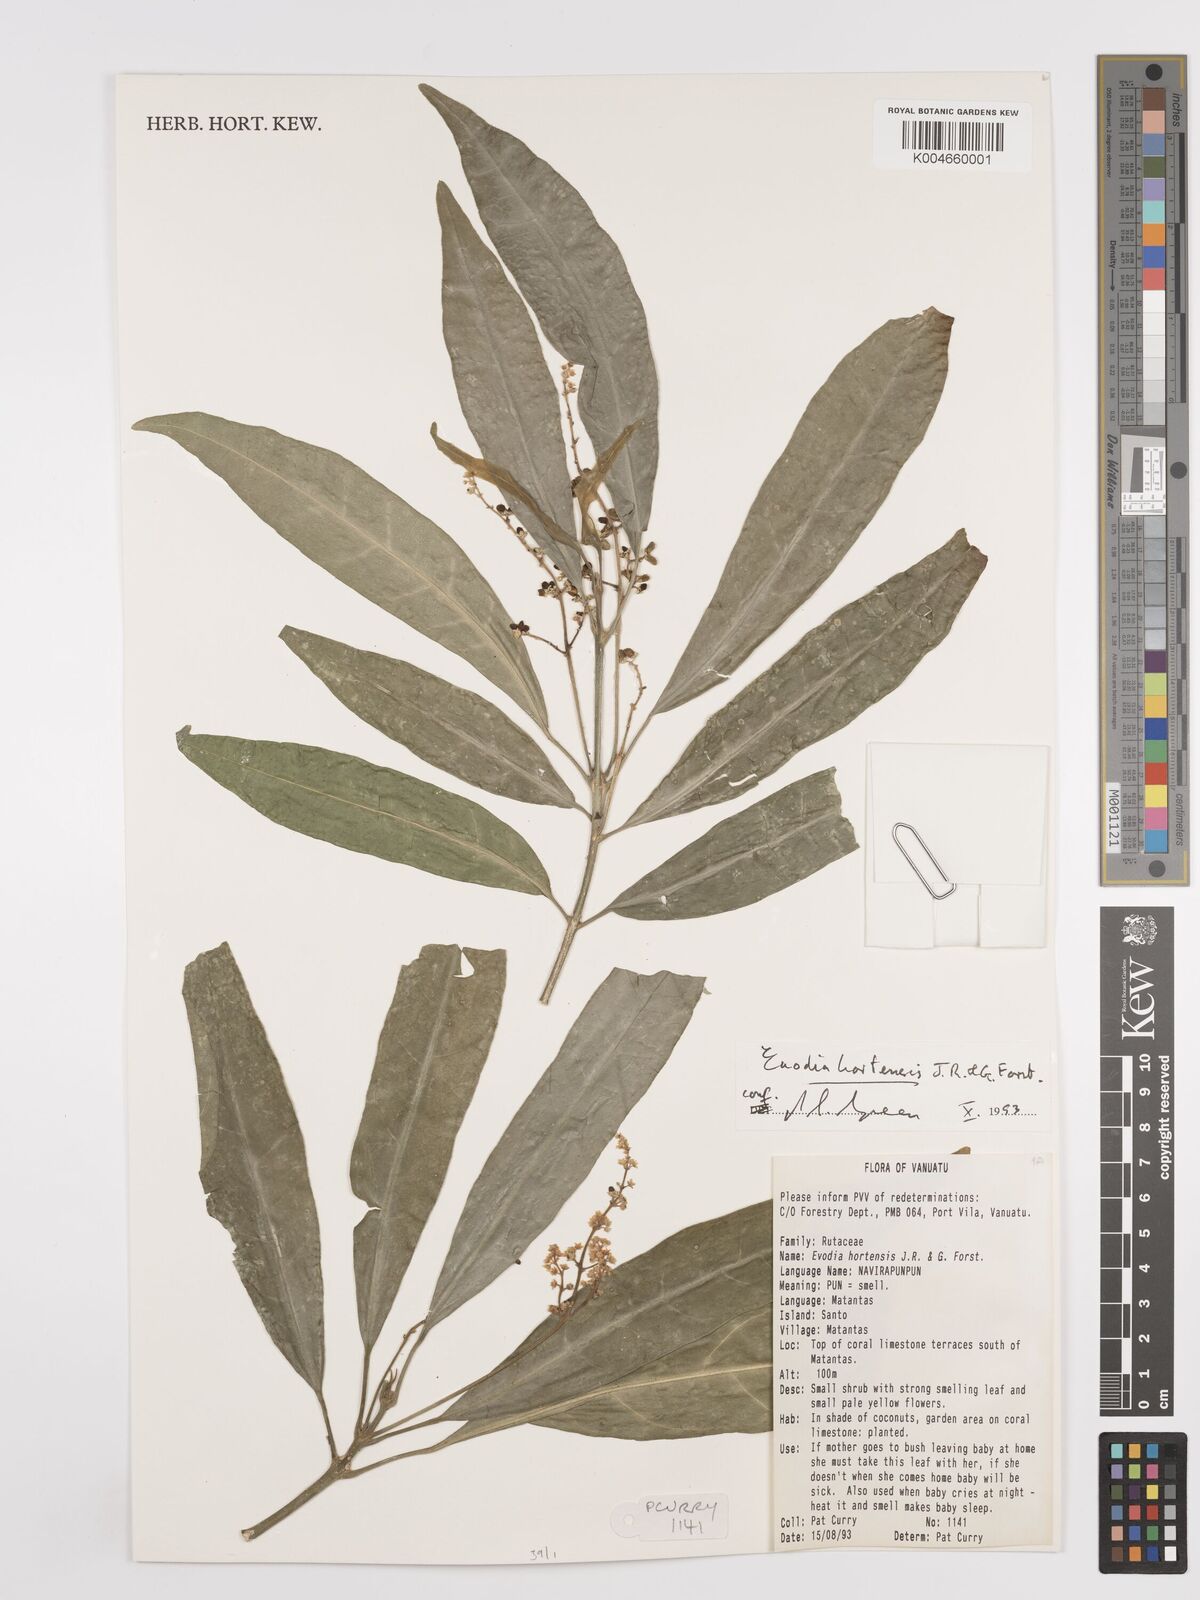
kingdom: Plantae
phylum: Tracheophyta
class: Magnoliopsida
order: Sapindales
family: Rutaceae
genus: Euodia
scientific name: Euodia hortensis
